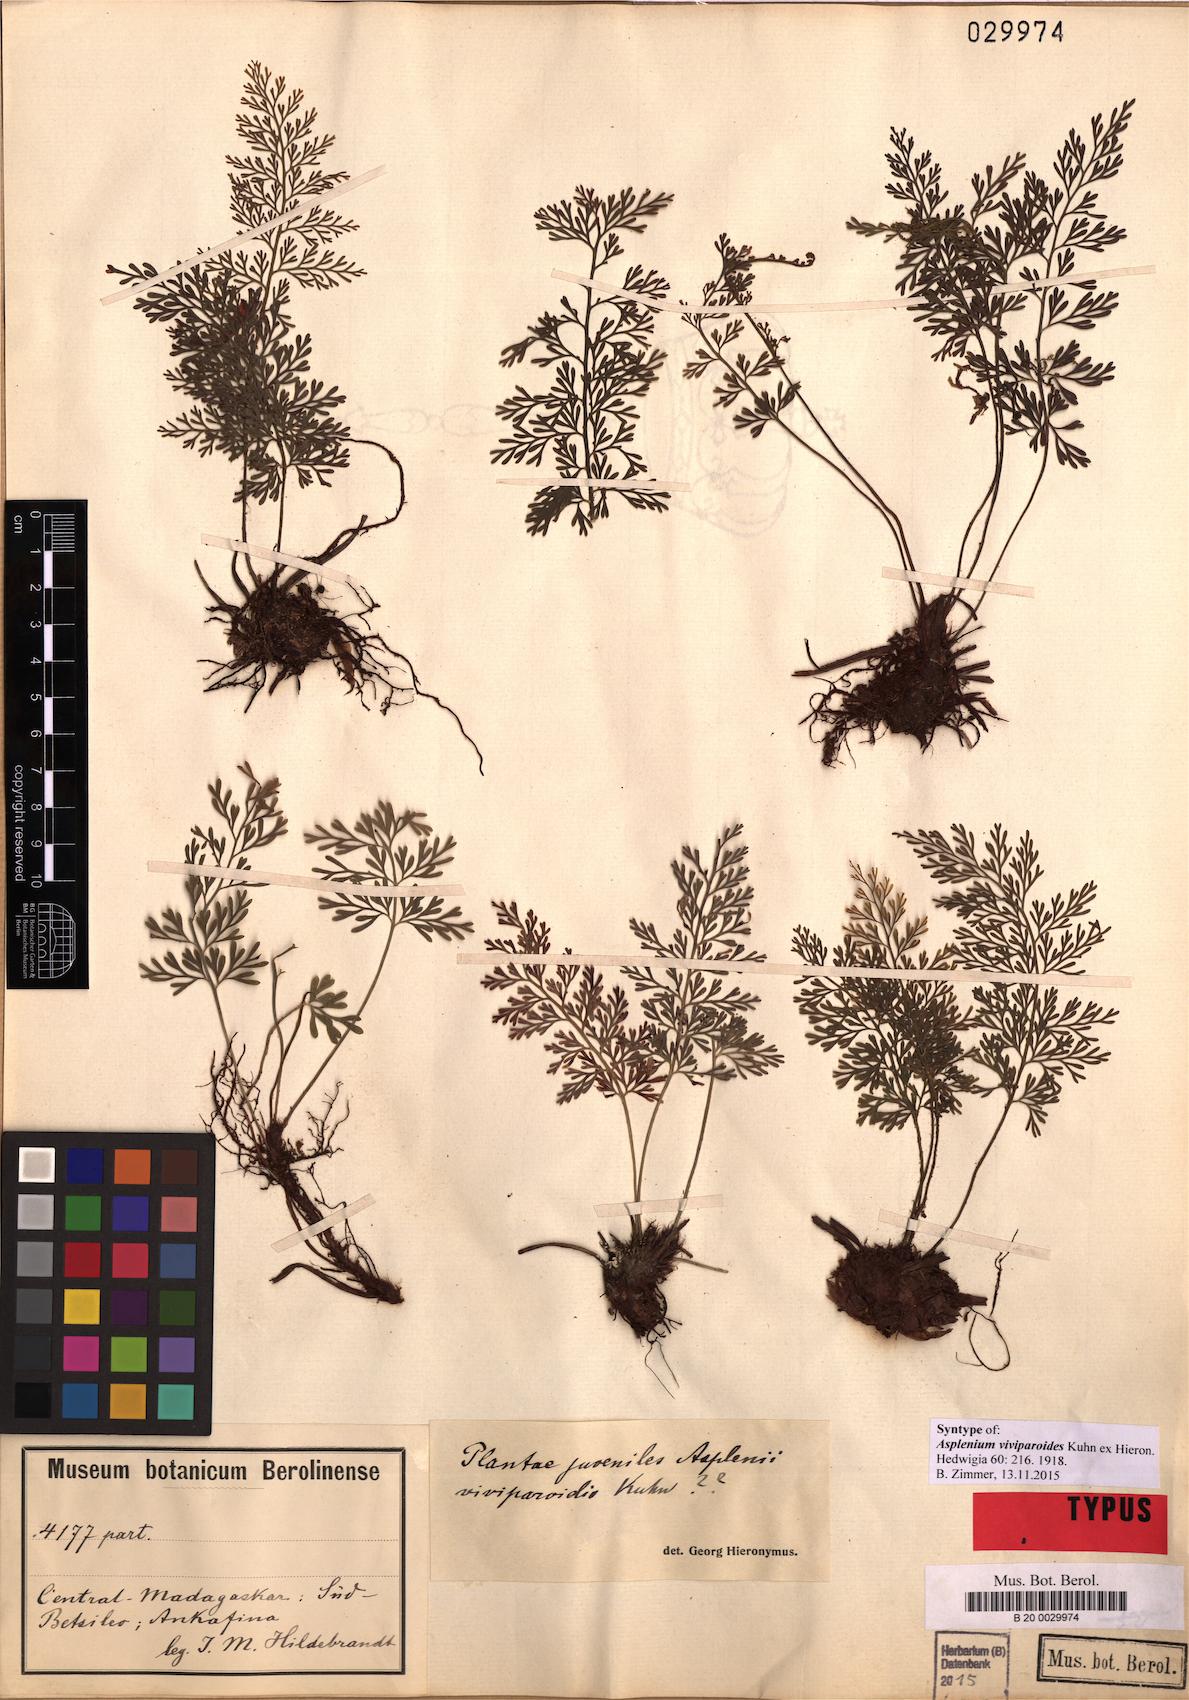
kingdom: Plantae
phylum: Tracheophyta
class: Polypodiopsida
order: Polypodiales
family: Aspleniaceae
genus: Asplenium
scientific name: Asplenium viviparioides
